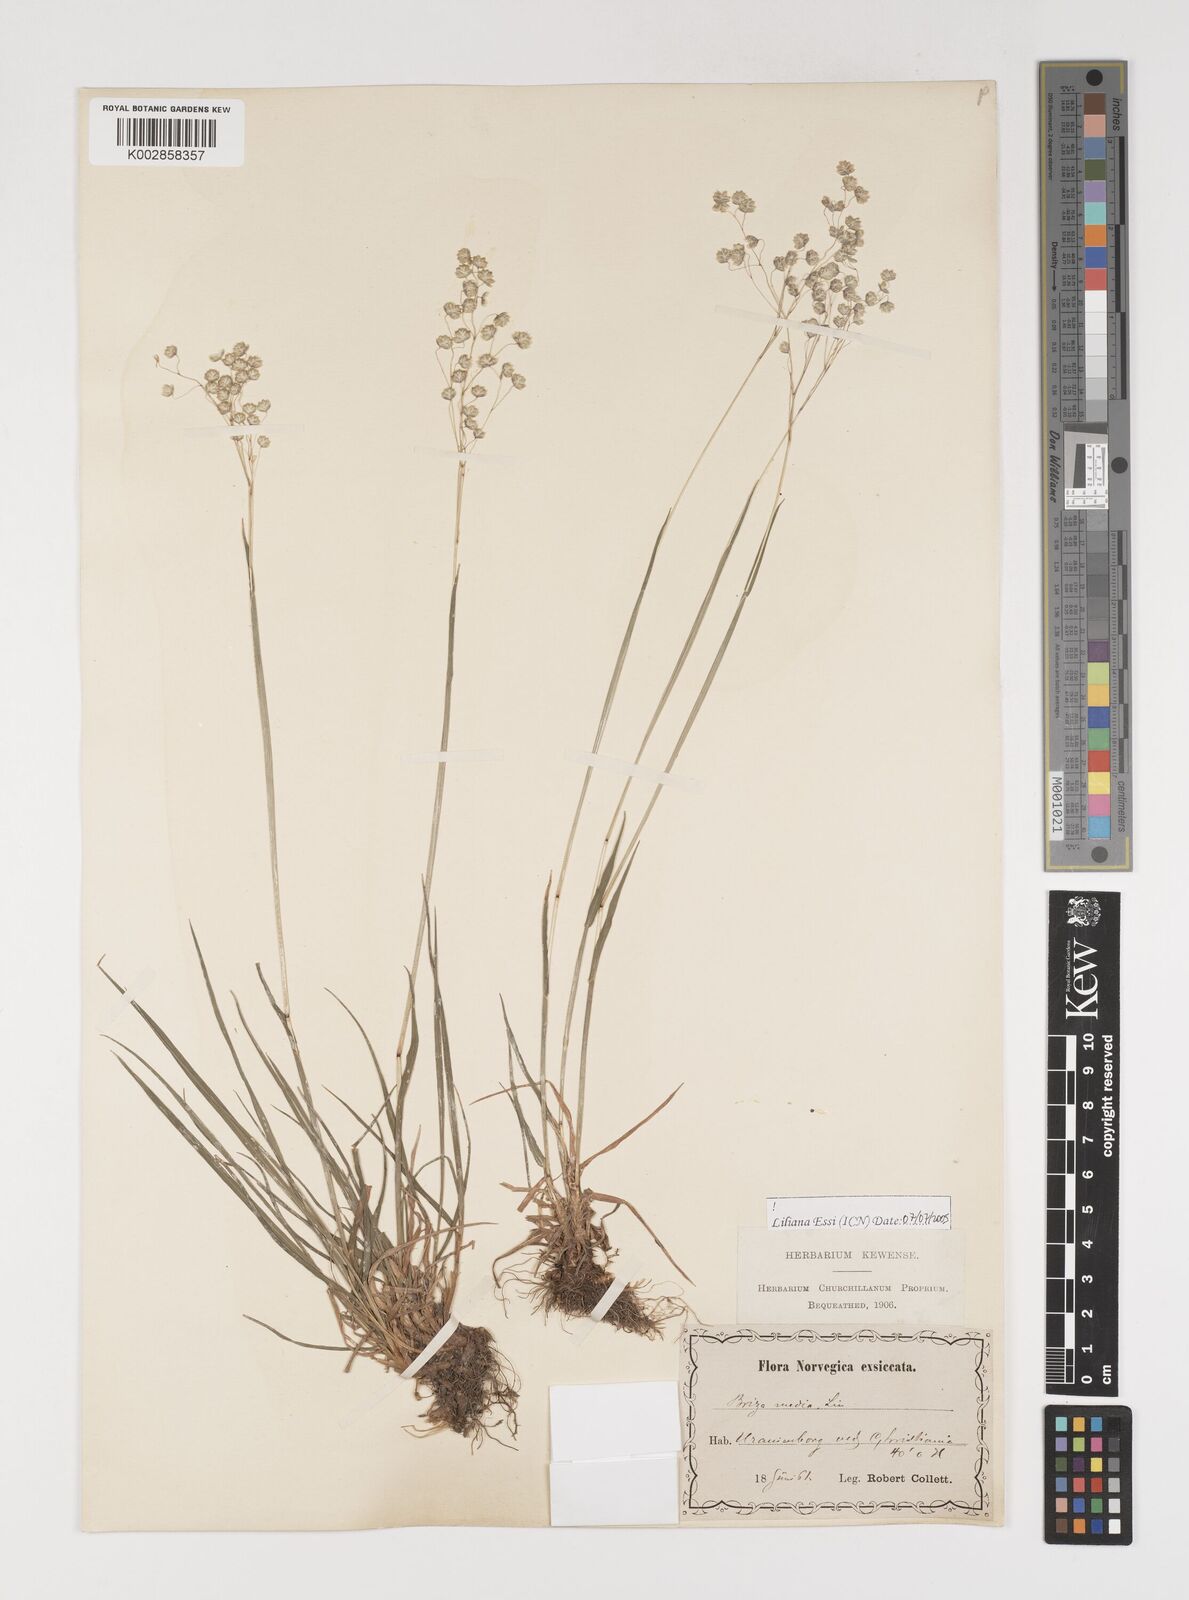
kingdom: Plantae
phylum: Tracheophyta
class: Liliopsida
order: Poales
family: Poaceae
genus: Briza
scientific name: Briza media
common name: Quaking grass
